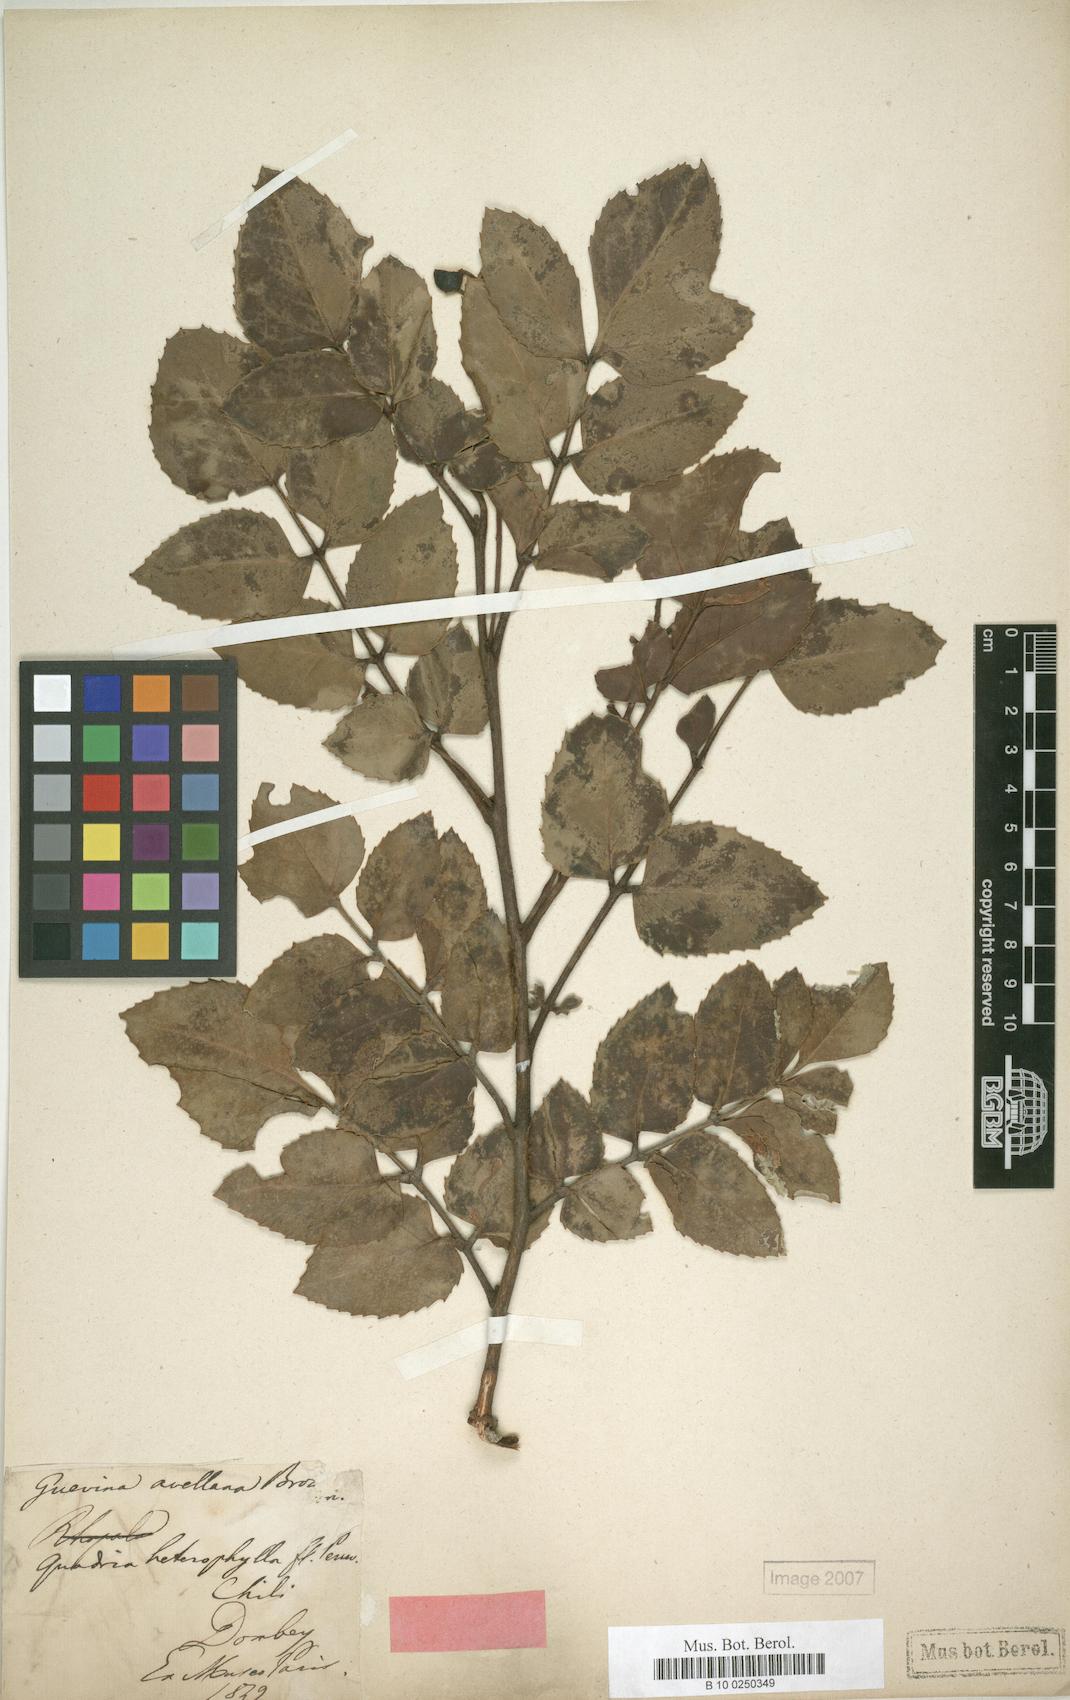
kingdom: Plantae
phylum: Tracheophyta
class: Magnoliopsida
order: Proteales
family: Proteaceae
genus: Gevuina
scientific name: Gevuina avellana
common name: Chilean hazel
